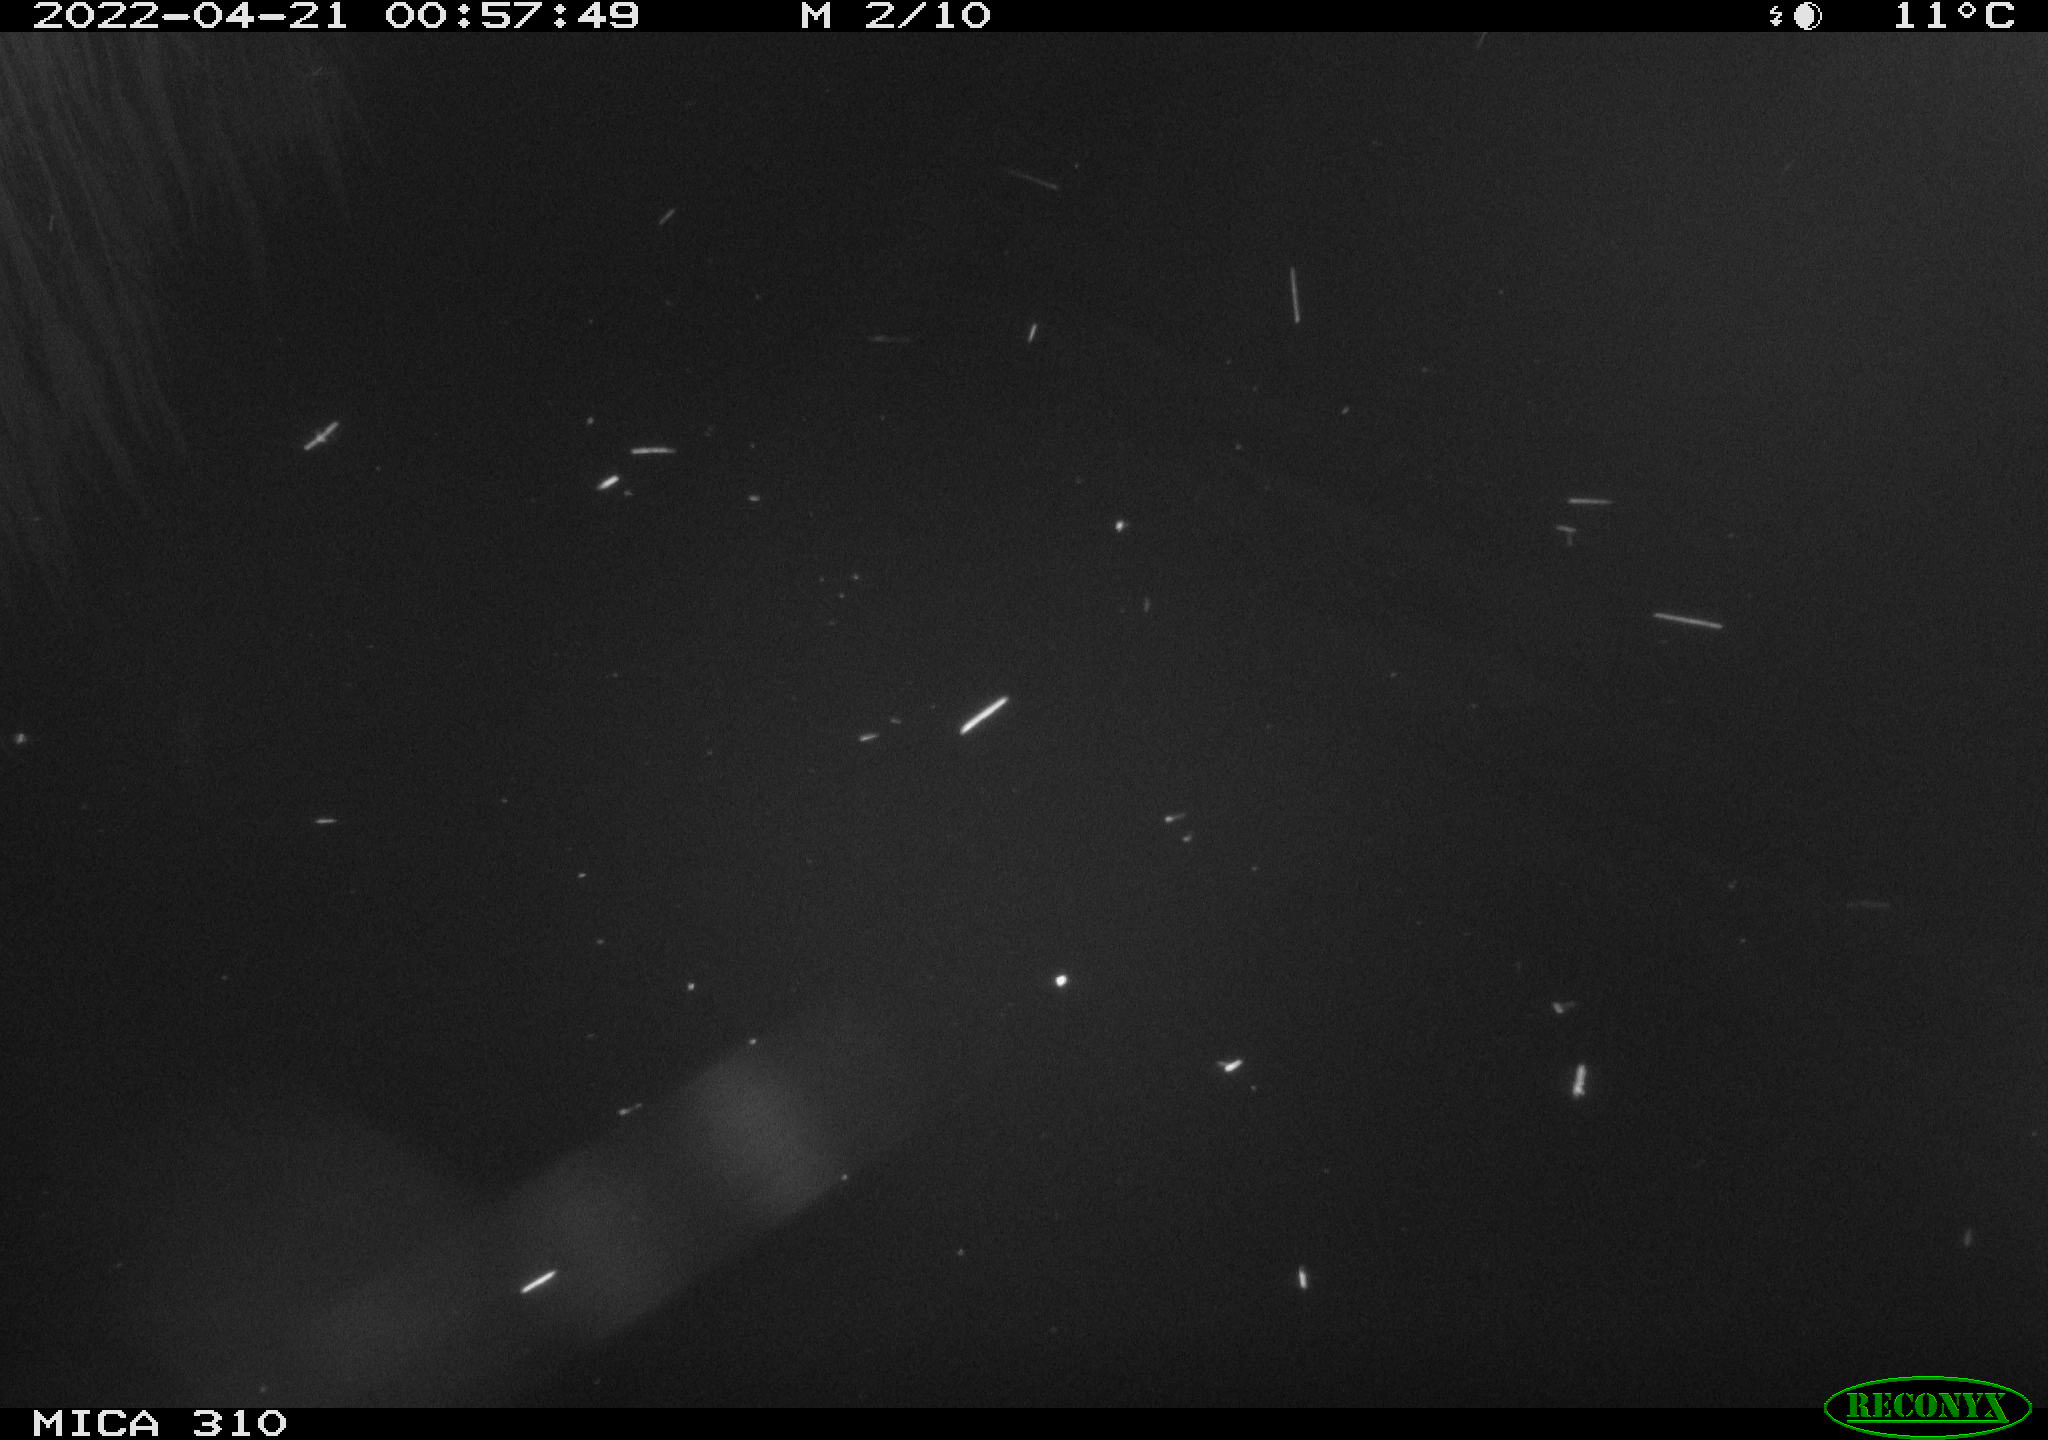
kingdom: Animalia
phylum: Chordata
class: Aves
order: Anseriformes
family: Anatidae
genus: Anas
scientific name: Anas platyrhynchos
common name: Mallard
